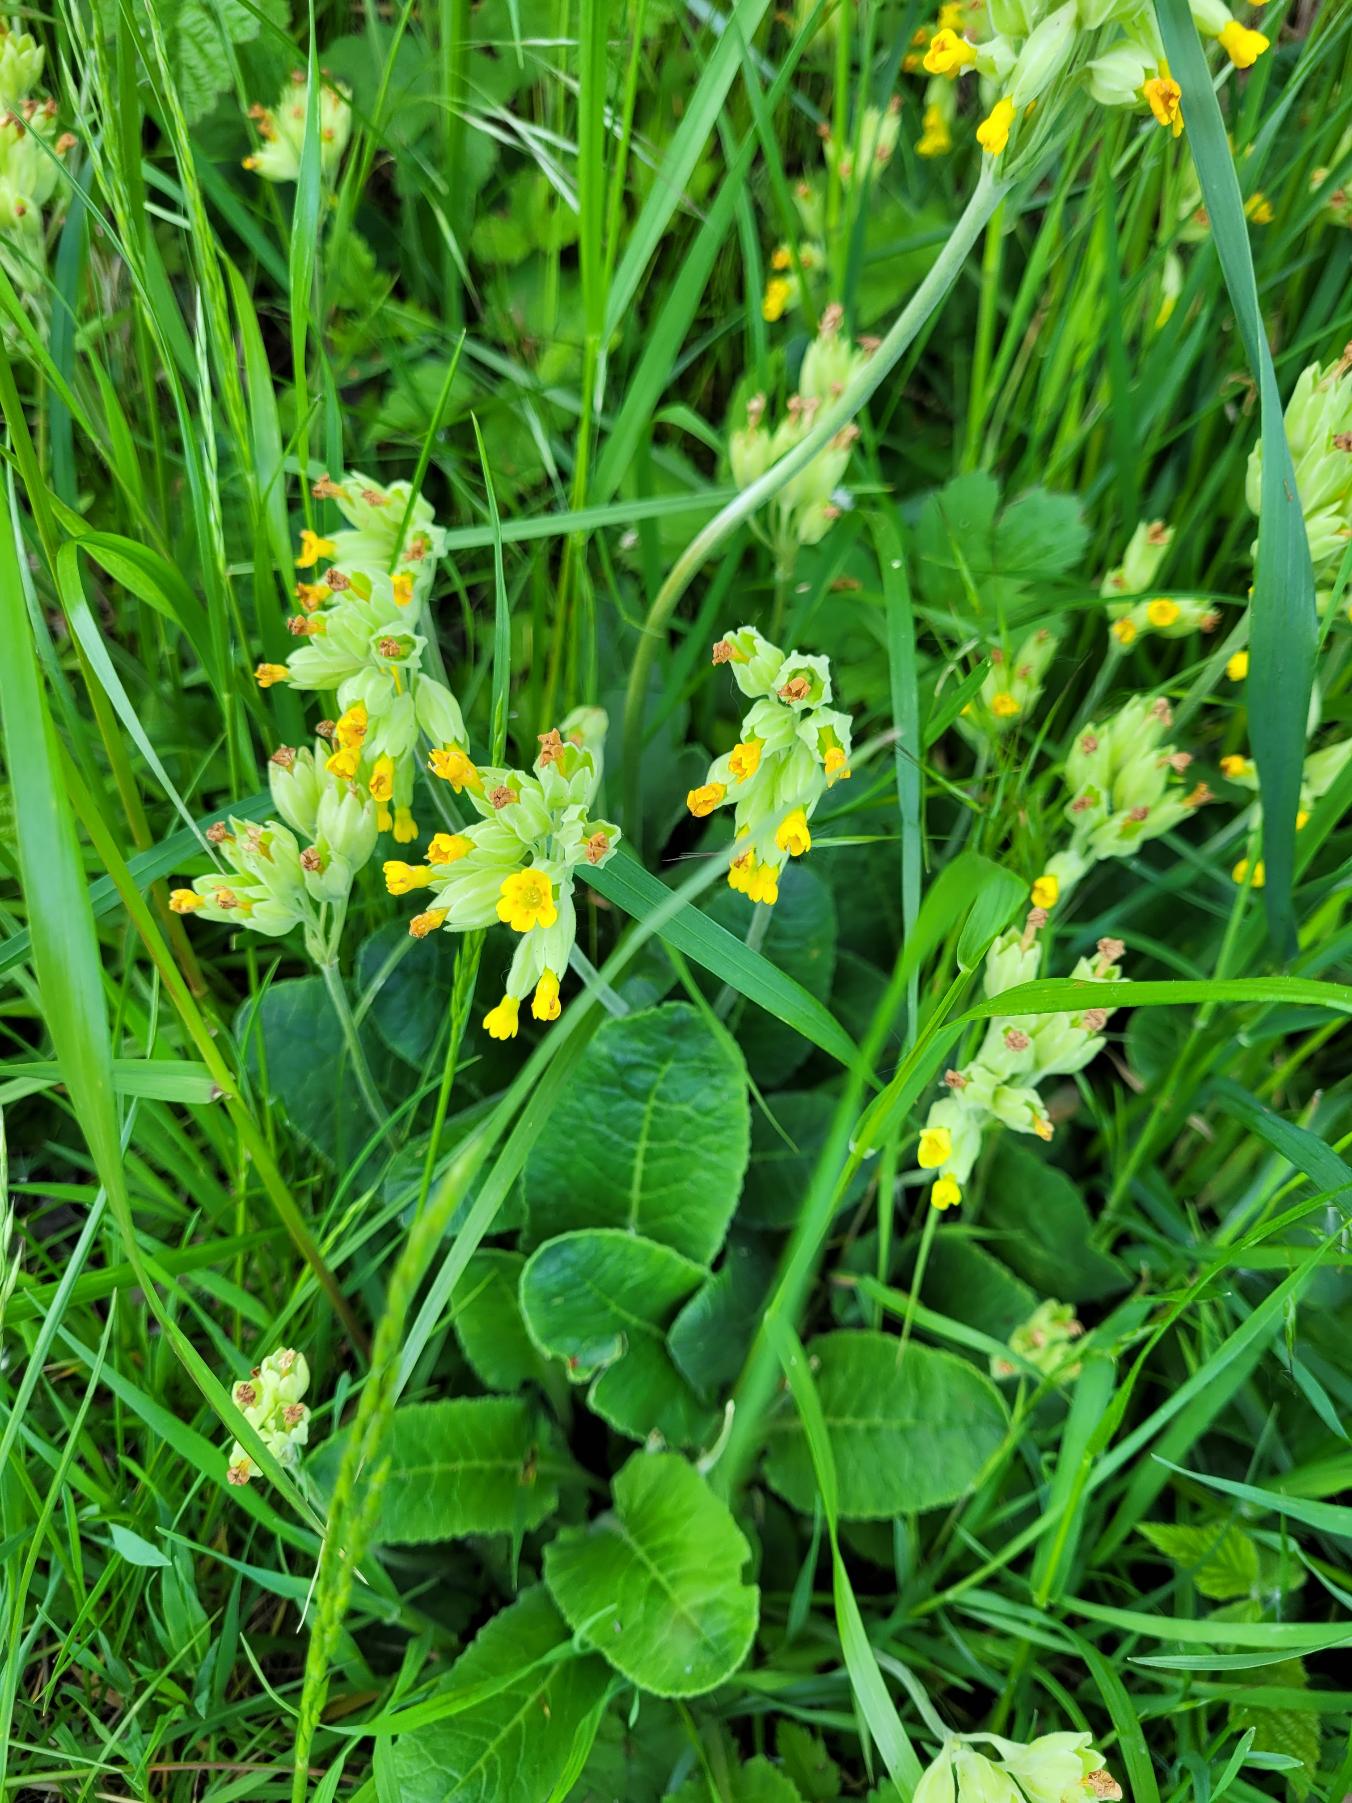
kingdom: Plantae
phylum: Tracheophyta
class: Magnoliopsida
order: Ericales
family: Primulaceae
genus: Primula
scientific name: Primula veris
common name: Hulkravet kodriver
